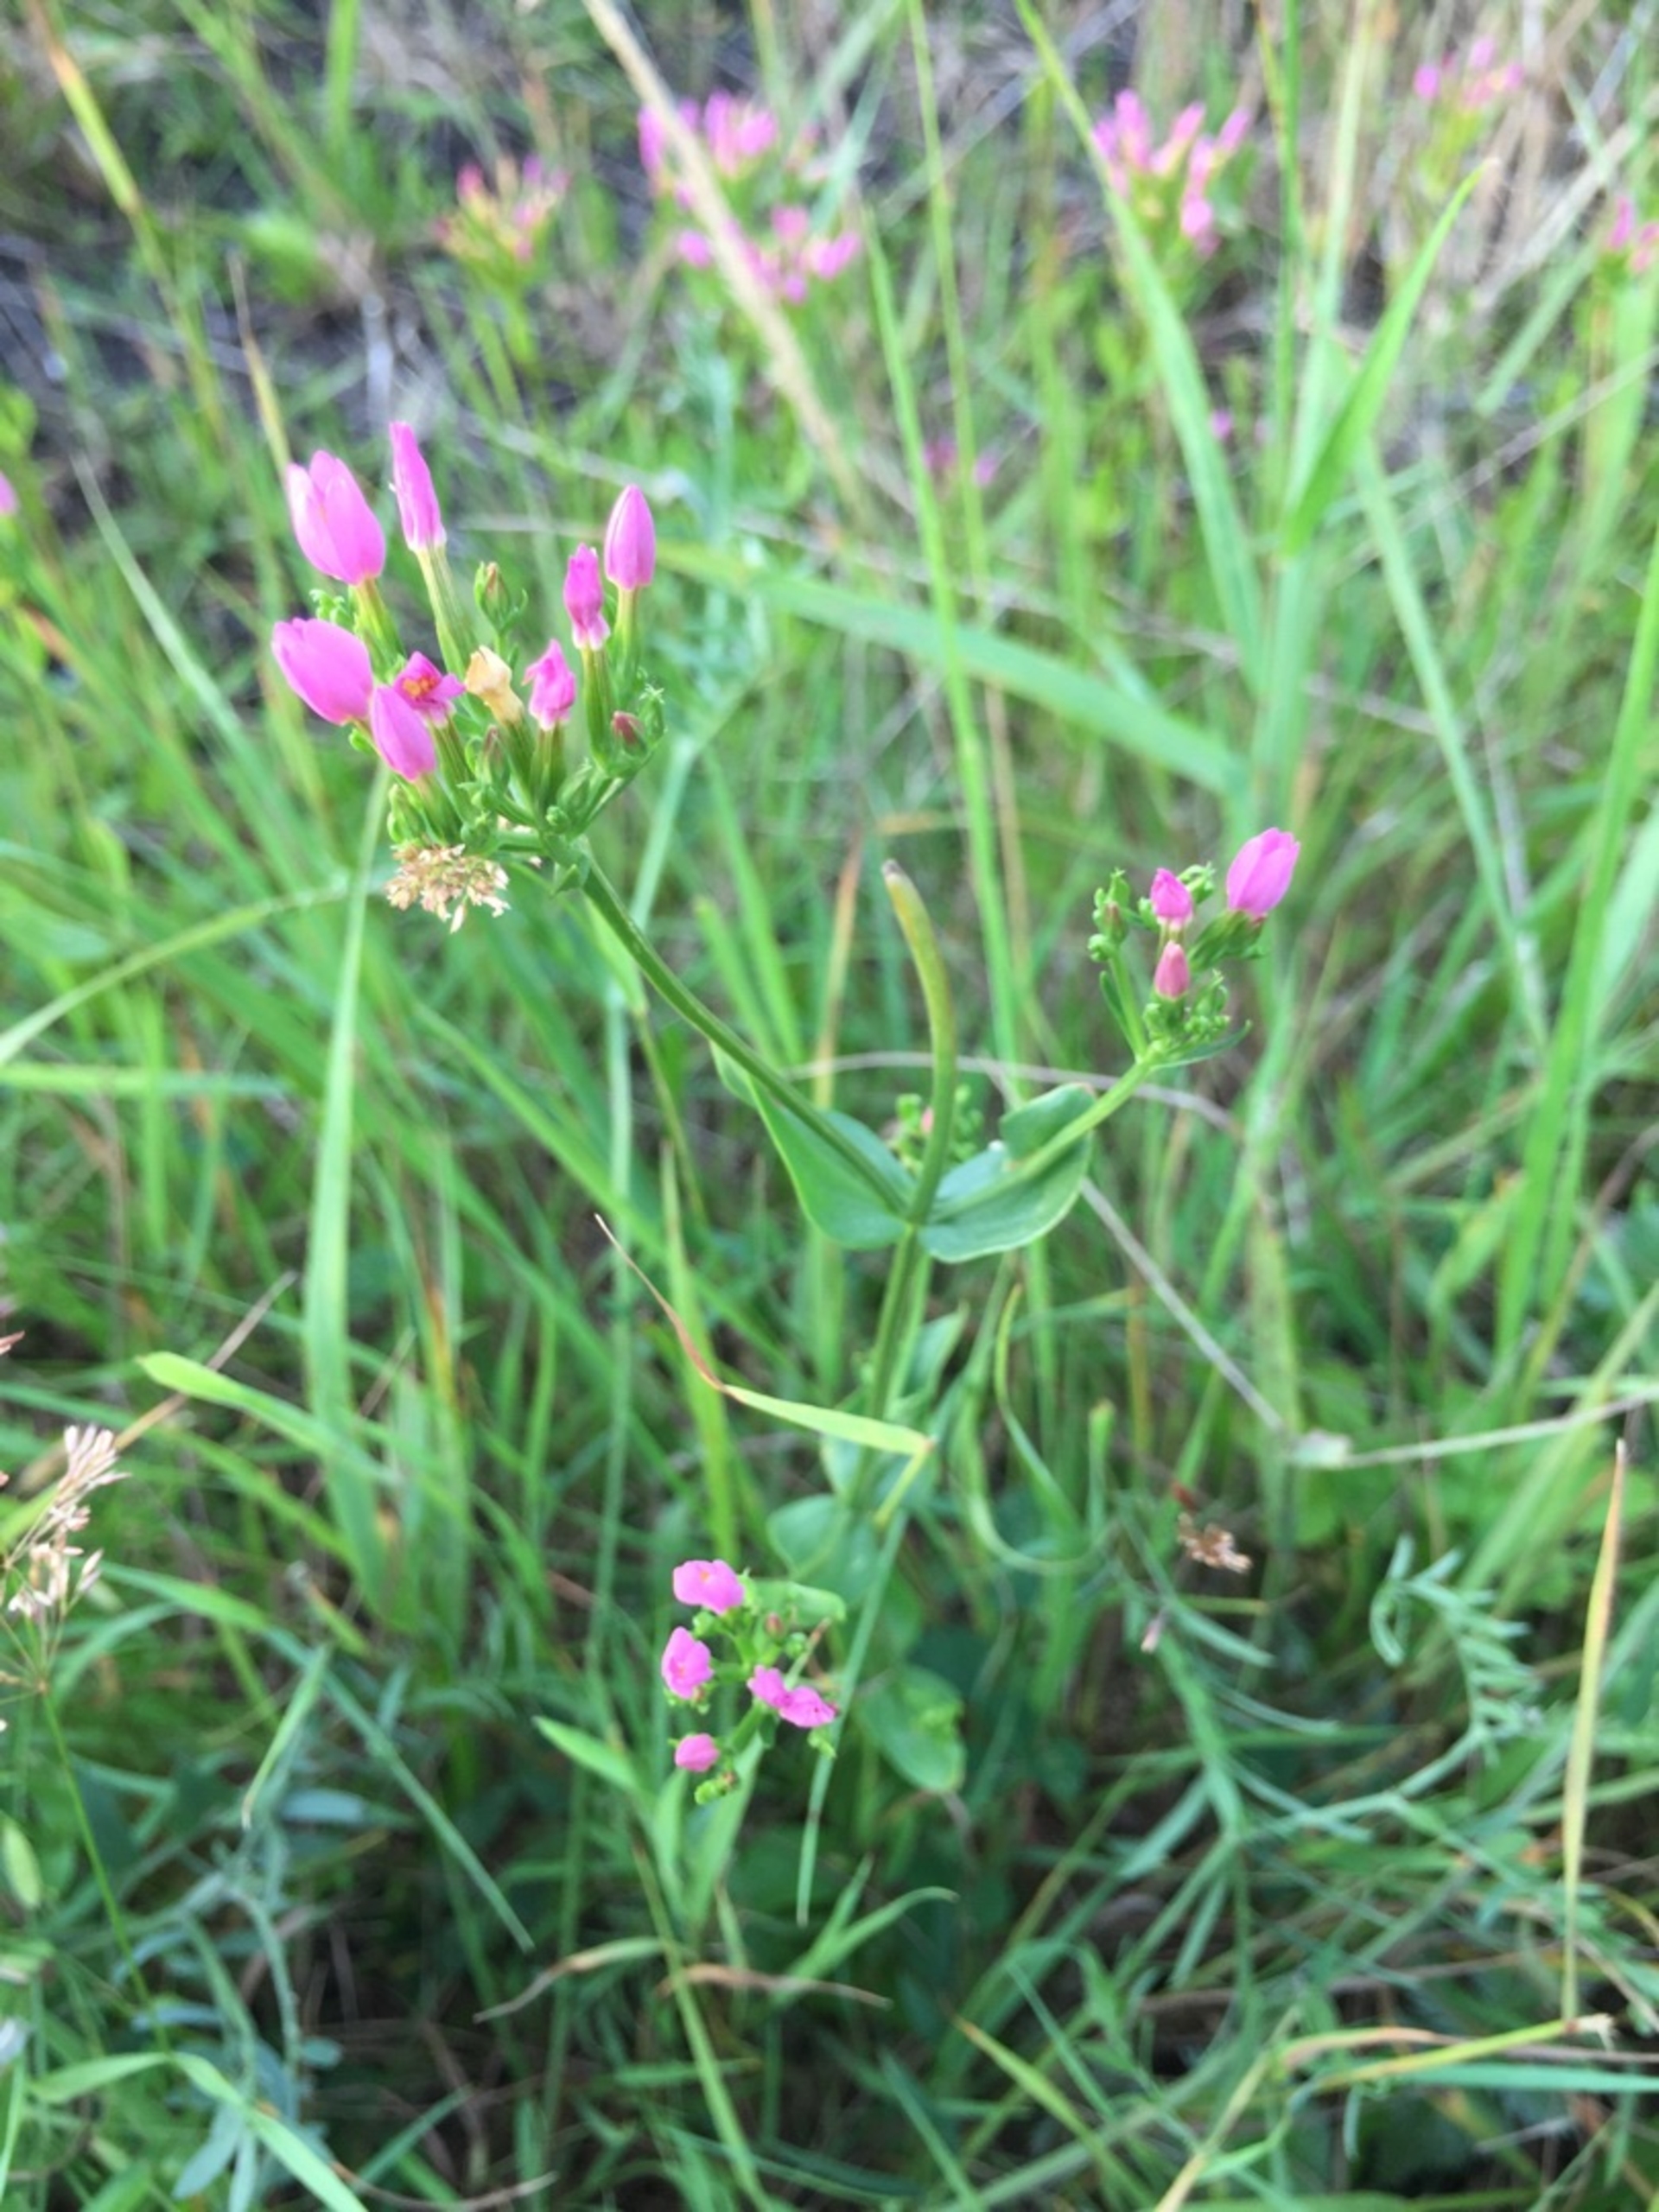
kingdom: Plantae
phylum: Tracheophyta
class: Magnoliopsida
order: Gentianales
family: Gentianaceae
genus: Centaurium
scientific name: Centaurium erythraea
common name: Almindelig mark-tusindgylden
